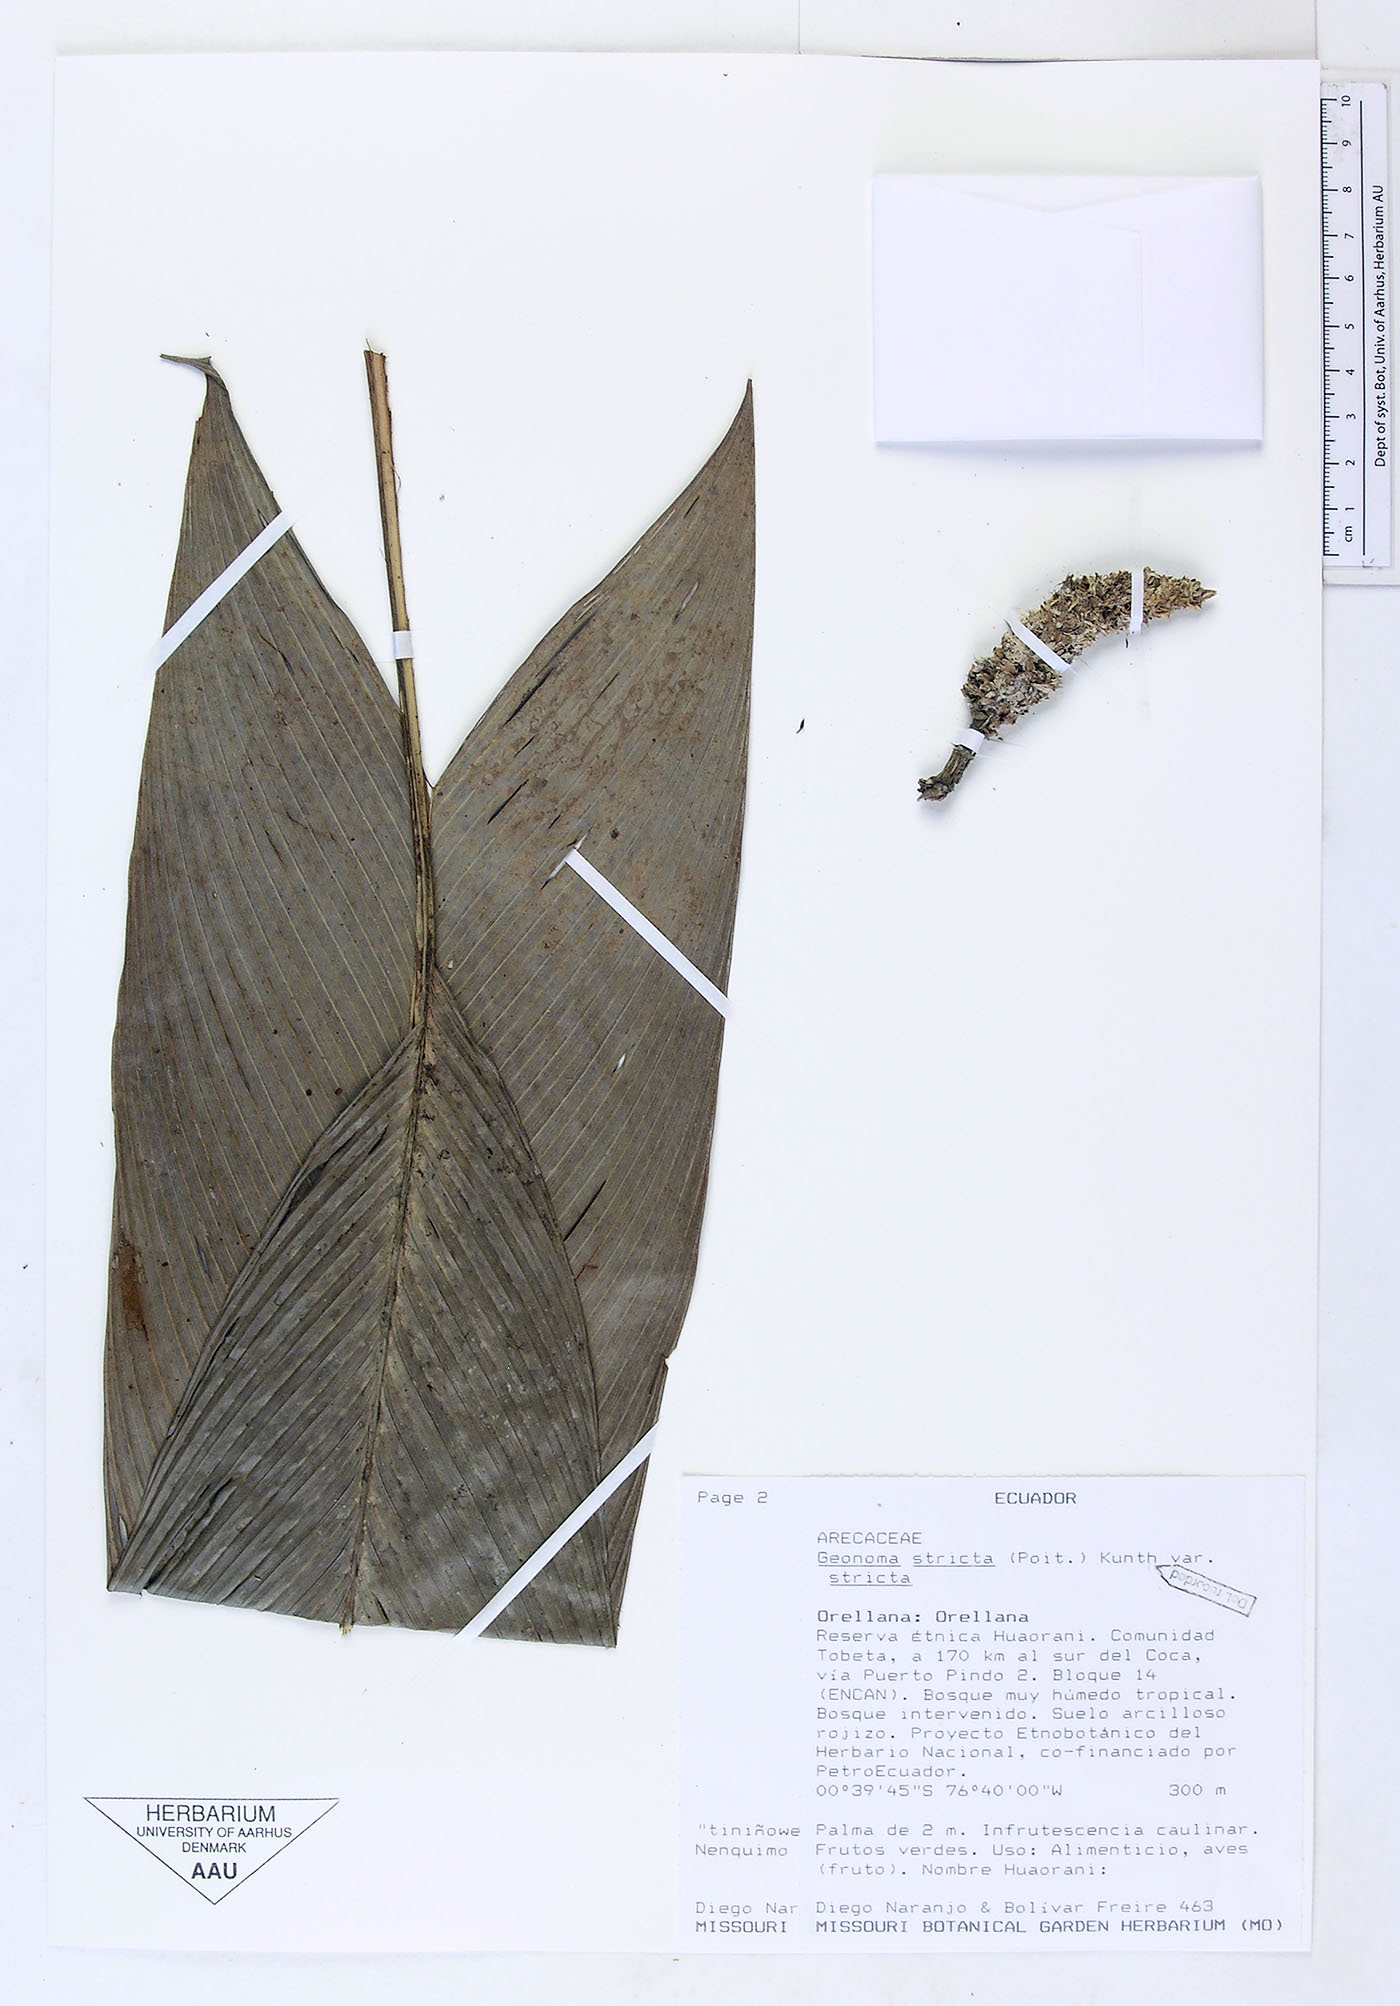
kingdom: Plantae
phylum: Tracheophyta
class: Liliopsida
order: Arecales
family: Arecaceae
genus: Geonoma
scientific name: Geonoma stricta
